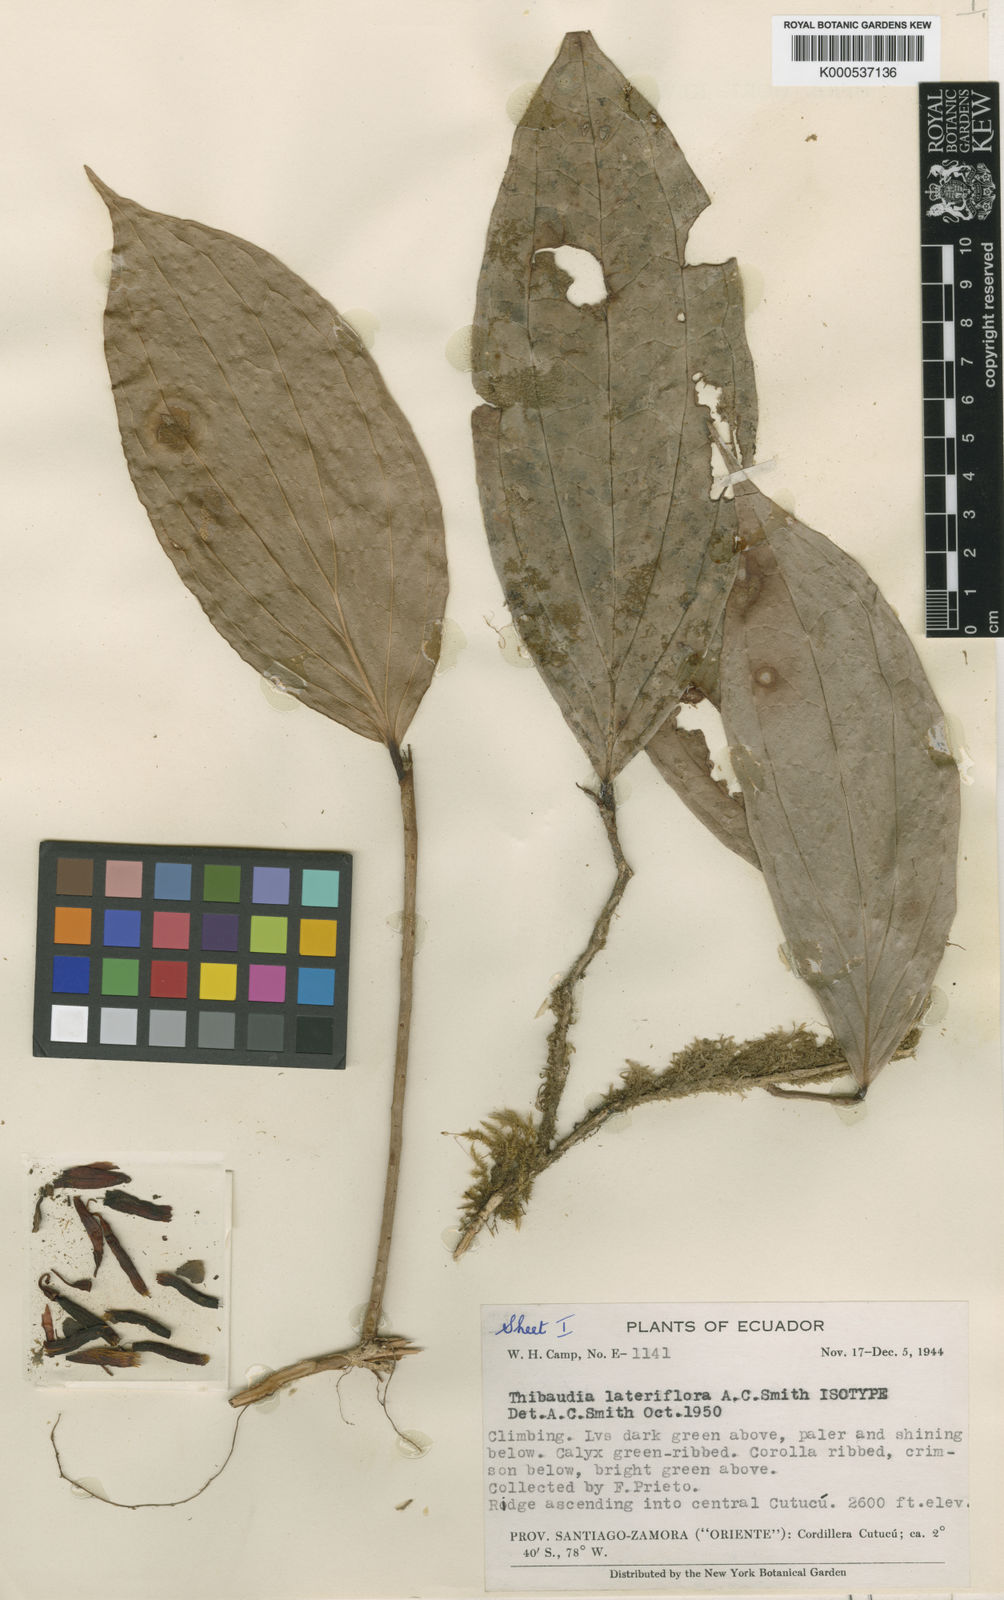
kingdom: Plantae
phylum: Tracheophyta
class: Magnoliopsida
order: Ericales
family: Ericaceae
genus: Thibaudia
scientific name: Thibaudia lateriflora
